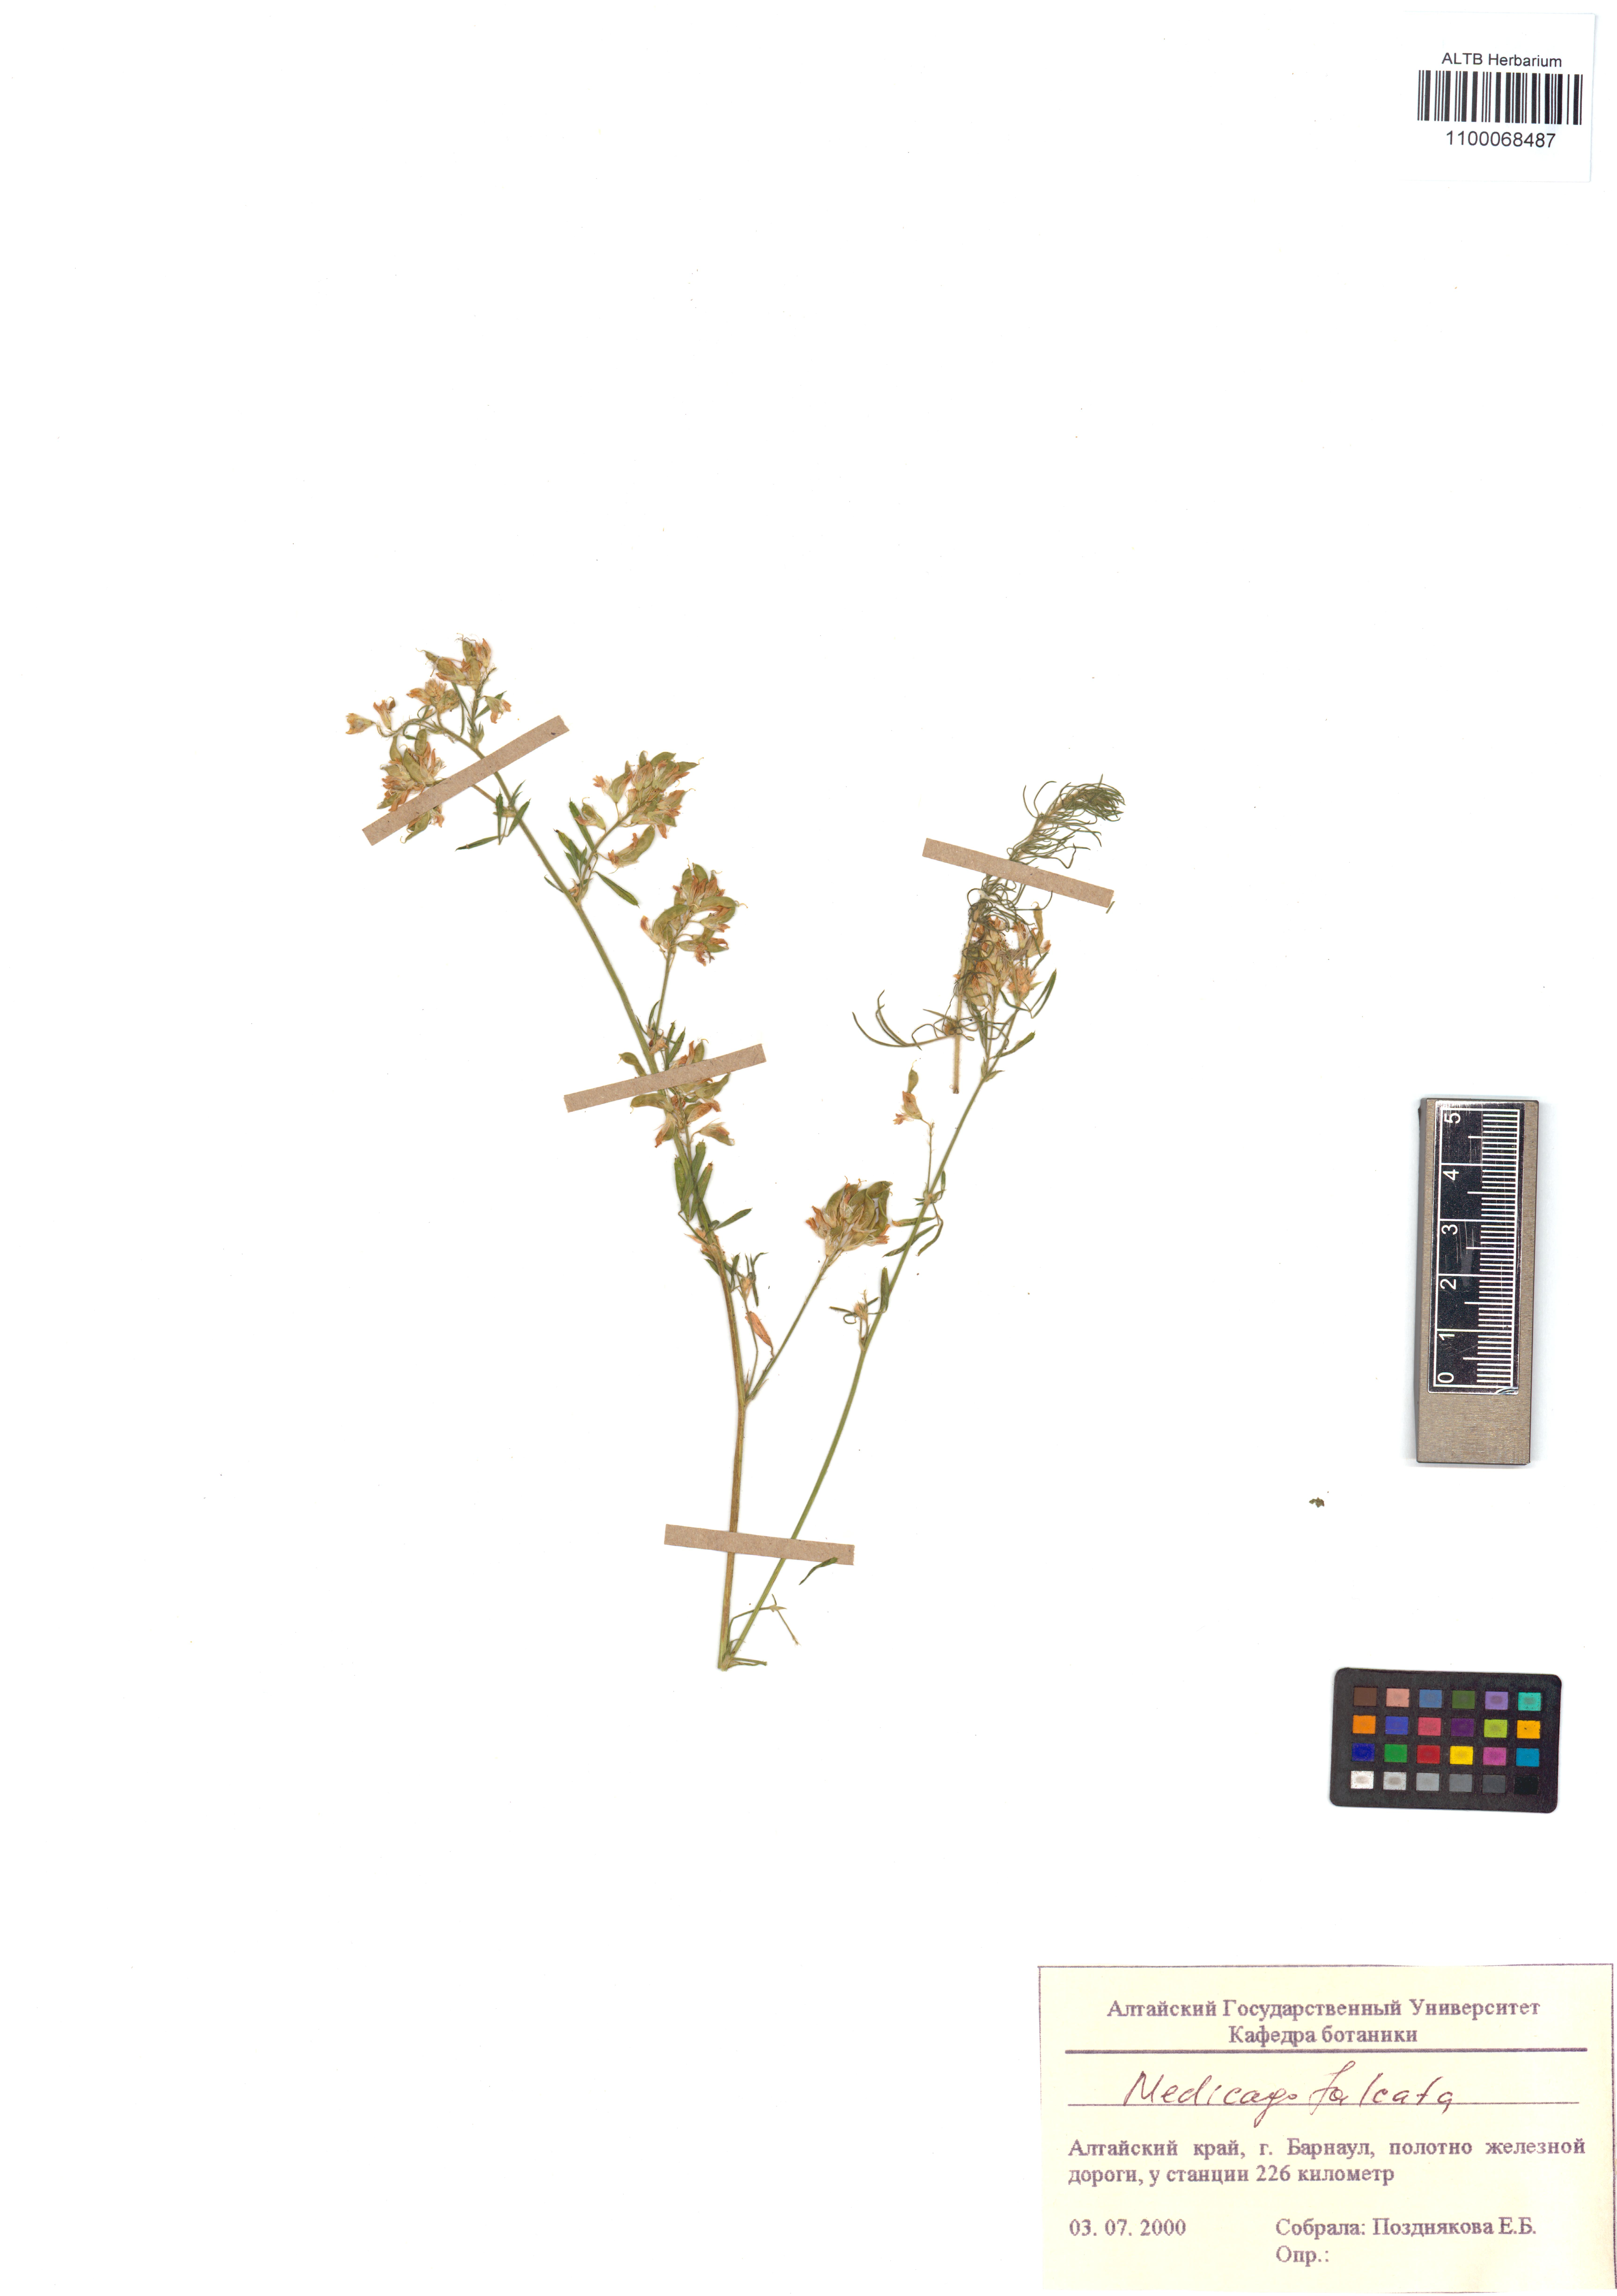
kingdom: Plantae
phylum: Tracheophyta
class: Magnoliopsida
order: Fabales
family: Fabaceae
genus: Medicago
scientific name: Medicago falcata
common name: Sickle medick
